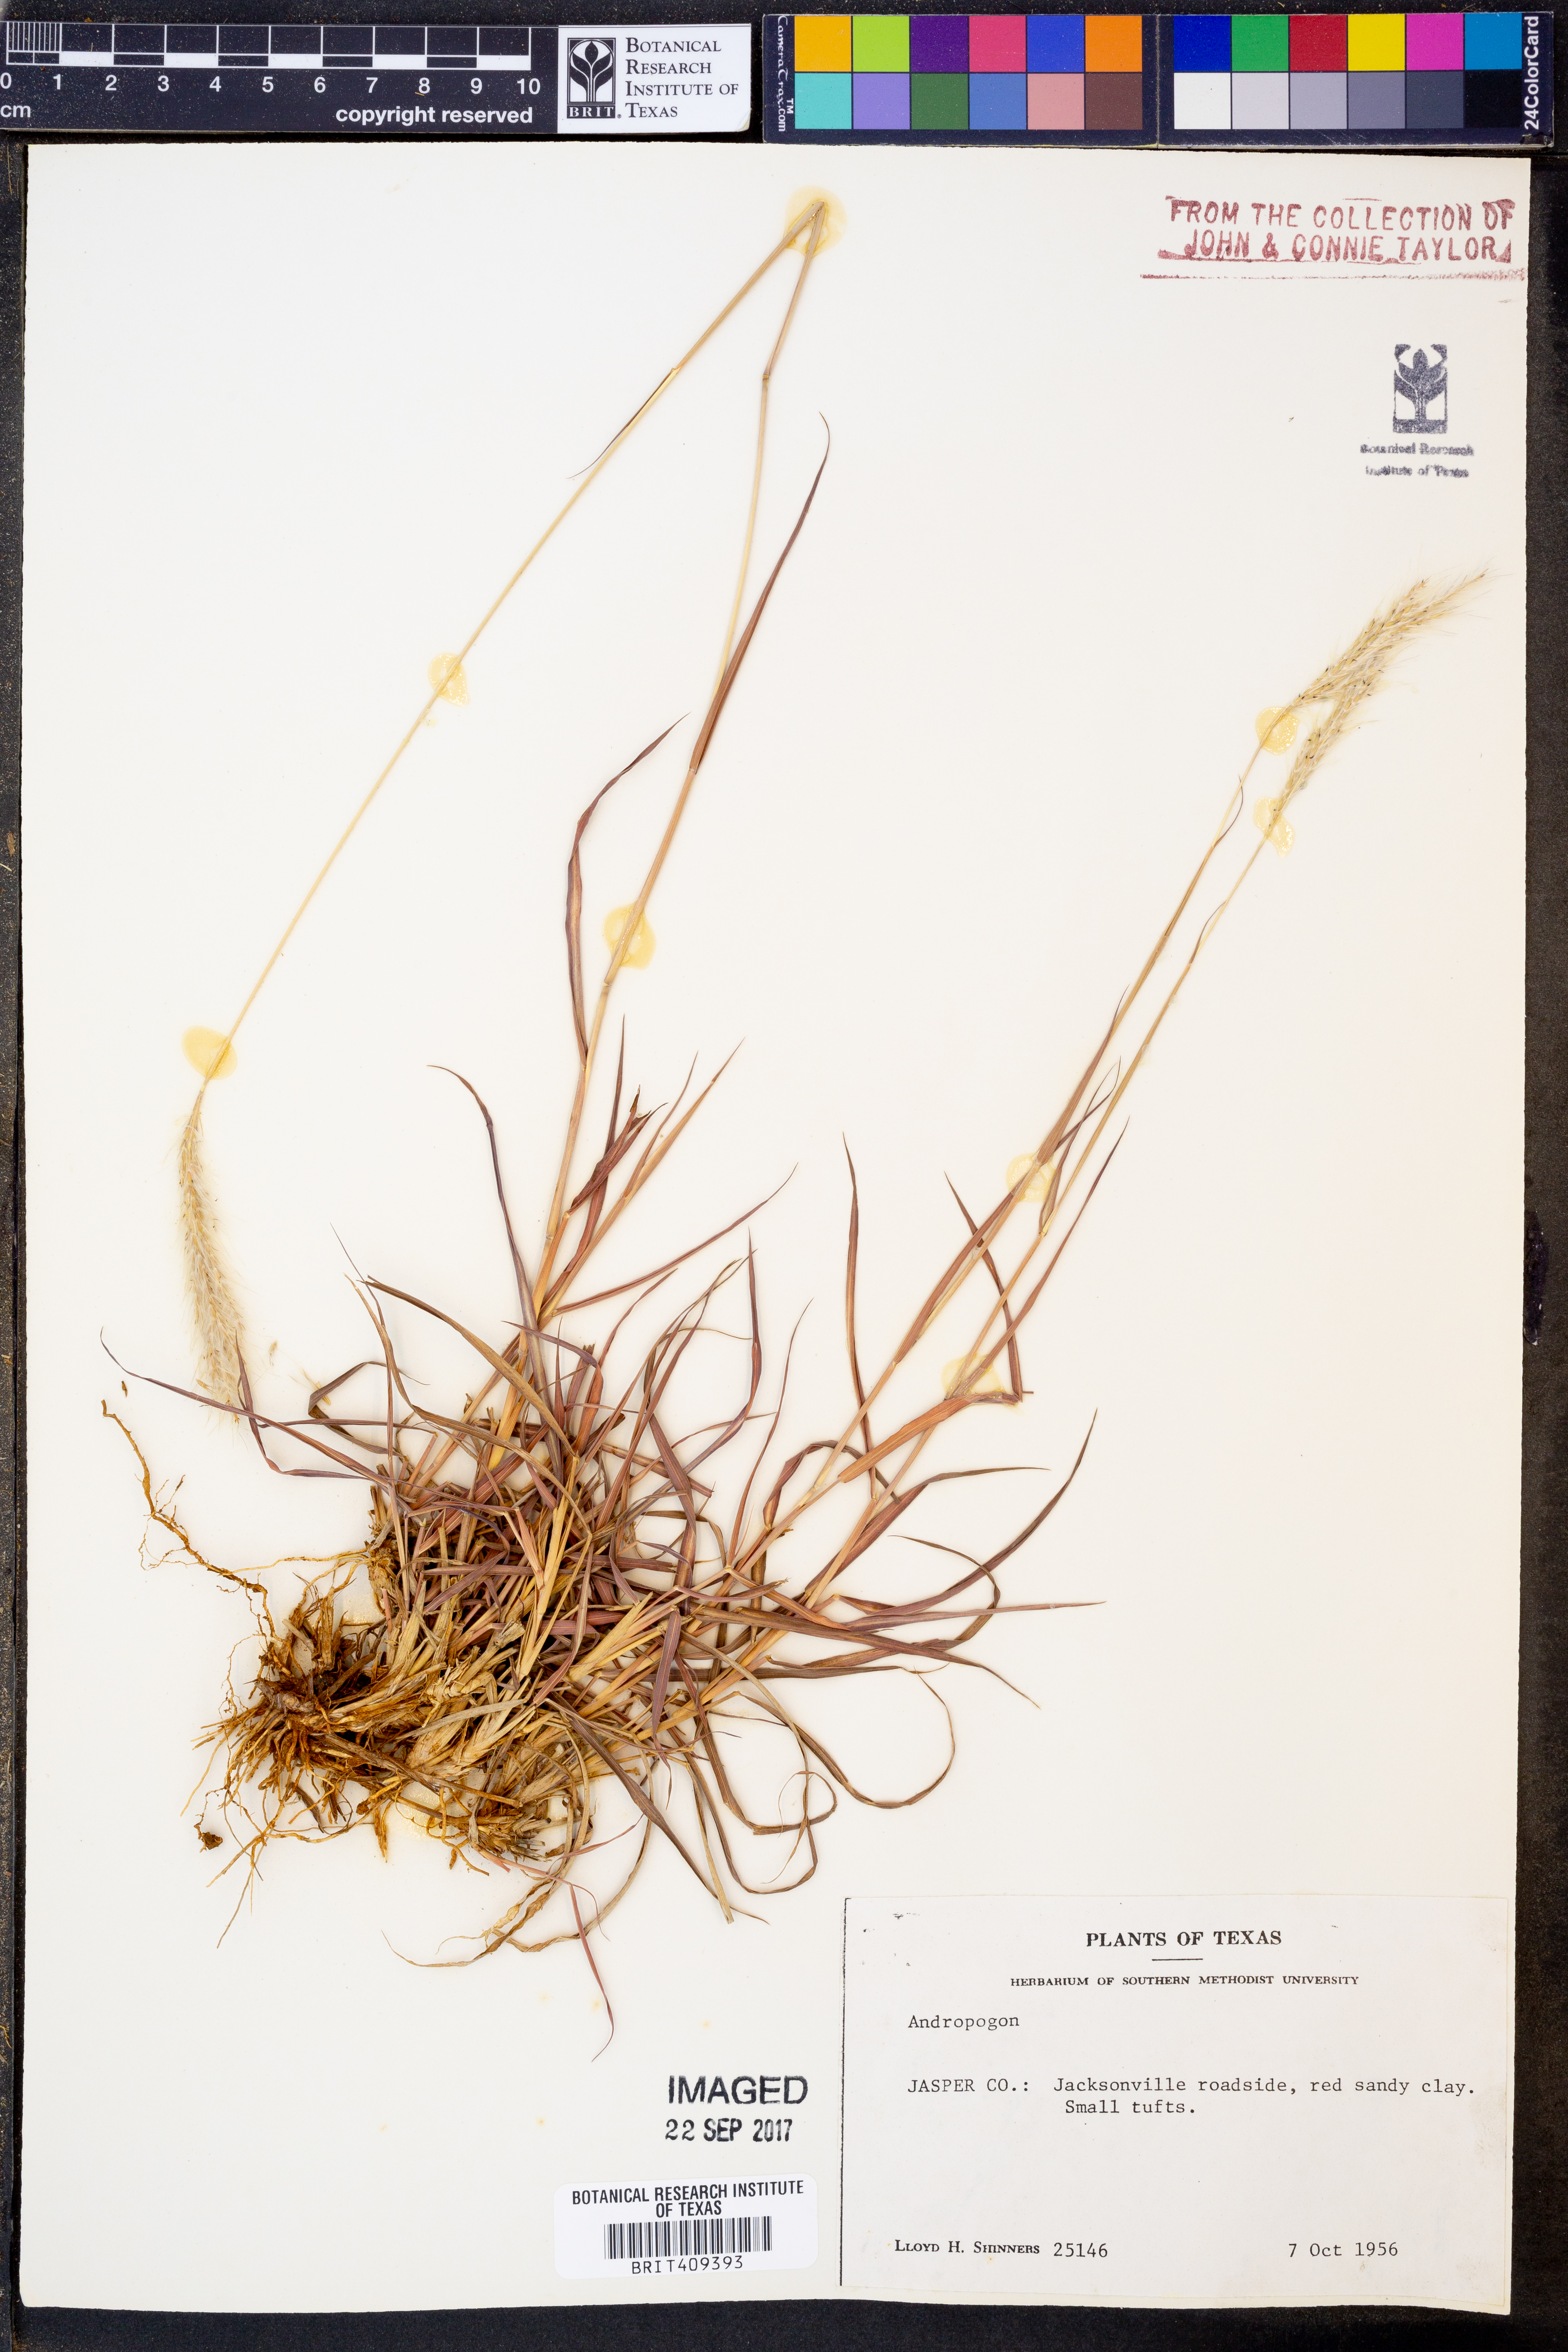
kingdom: Plantae
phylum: Tracheophyta
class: Liliopsida
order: Poales
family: Poaceae
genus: Andropogon
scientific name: Andropogon
